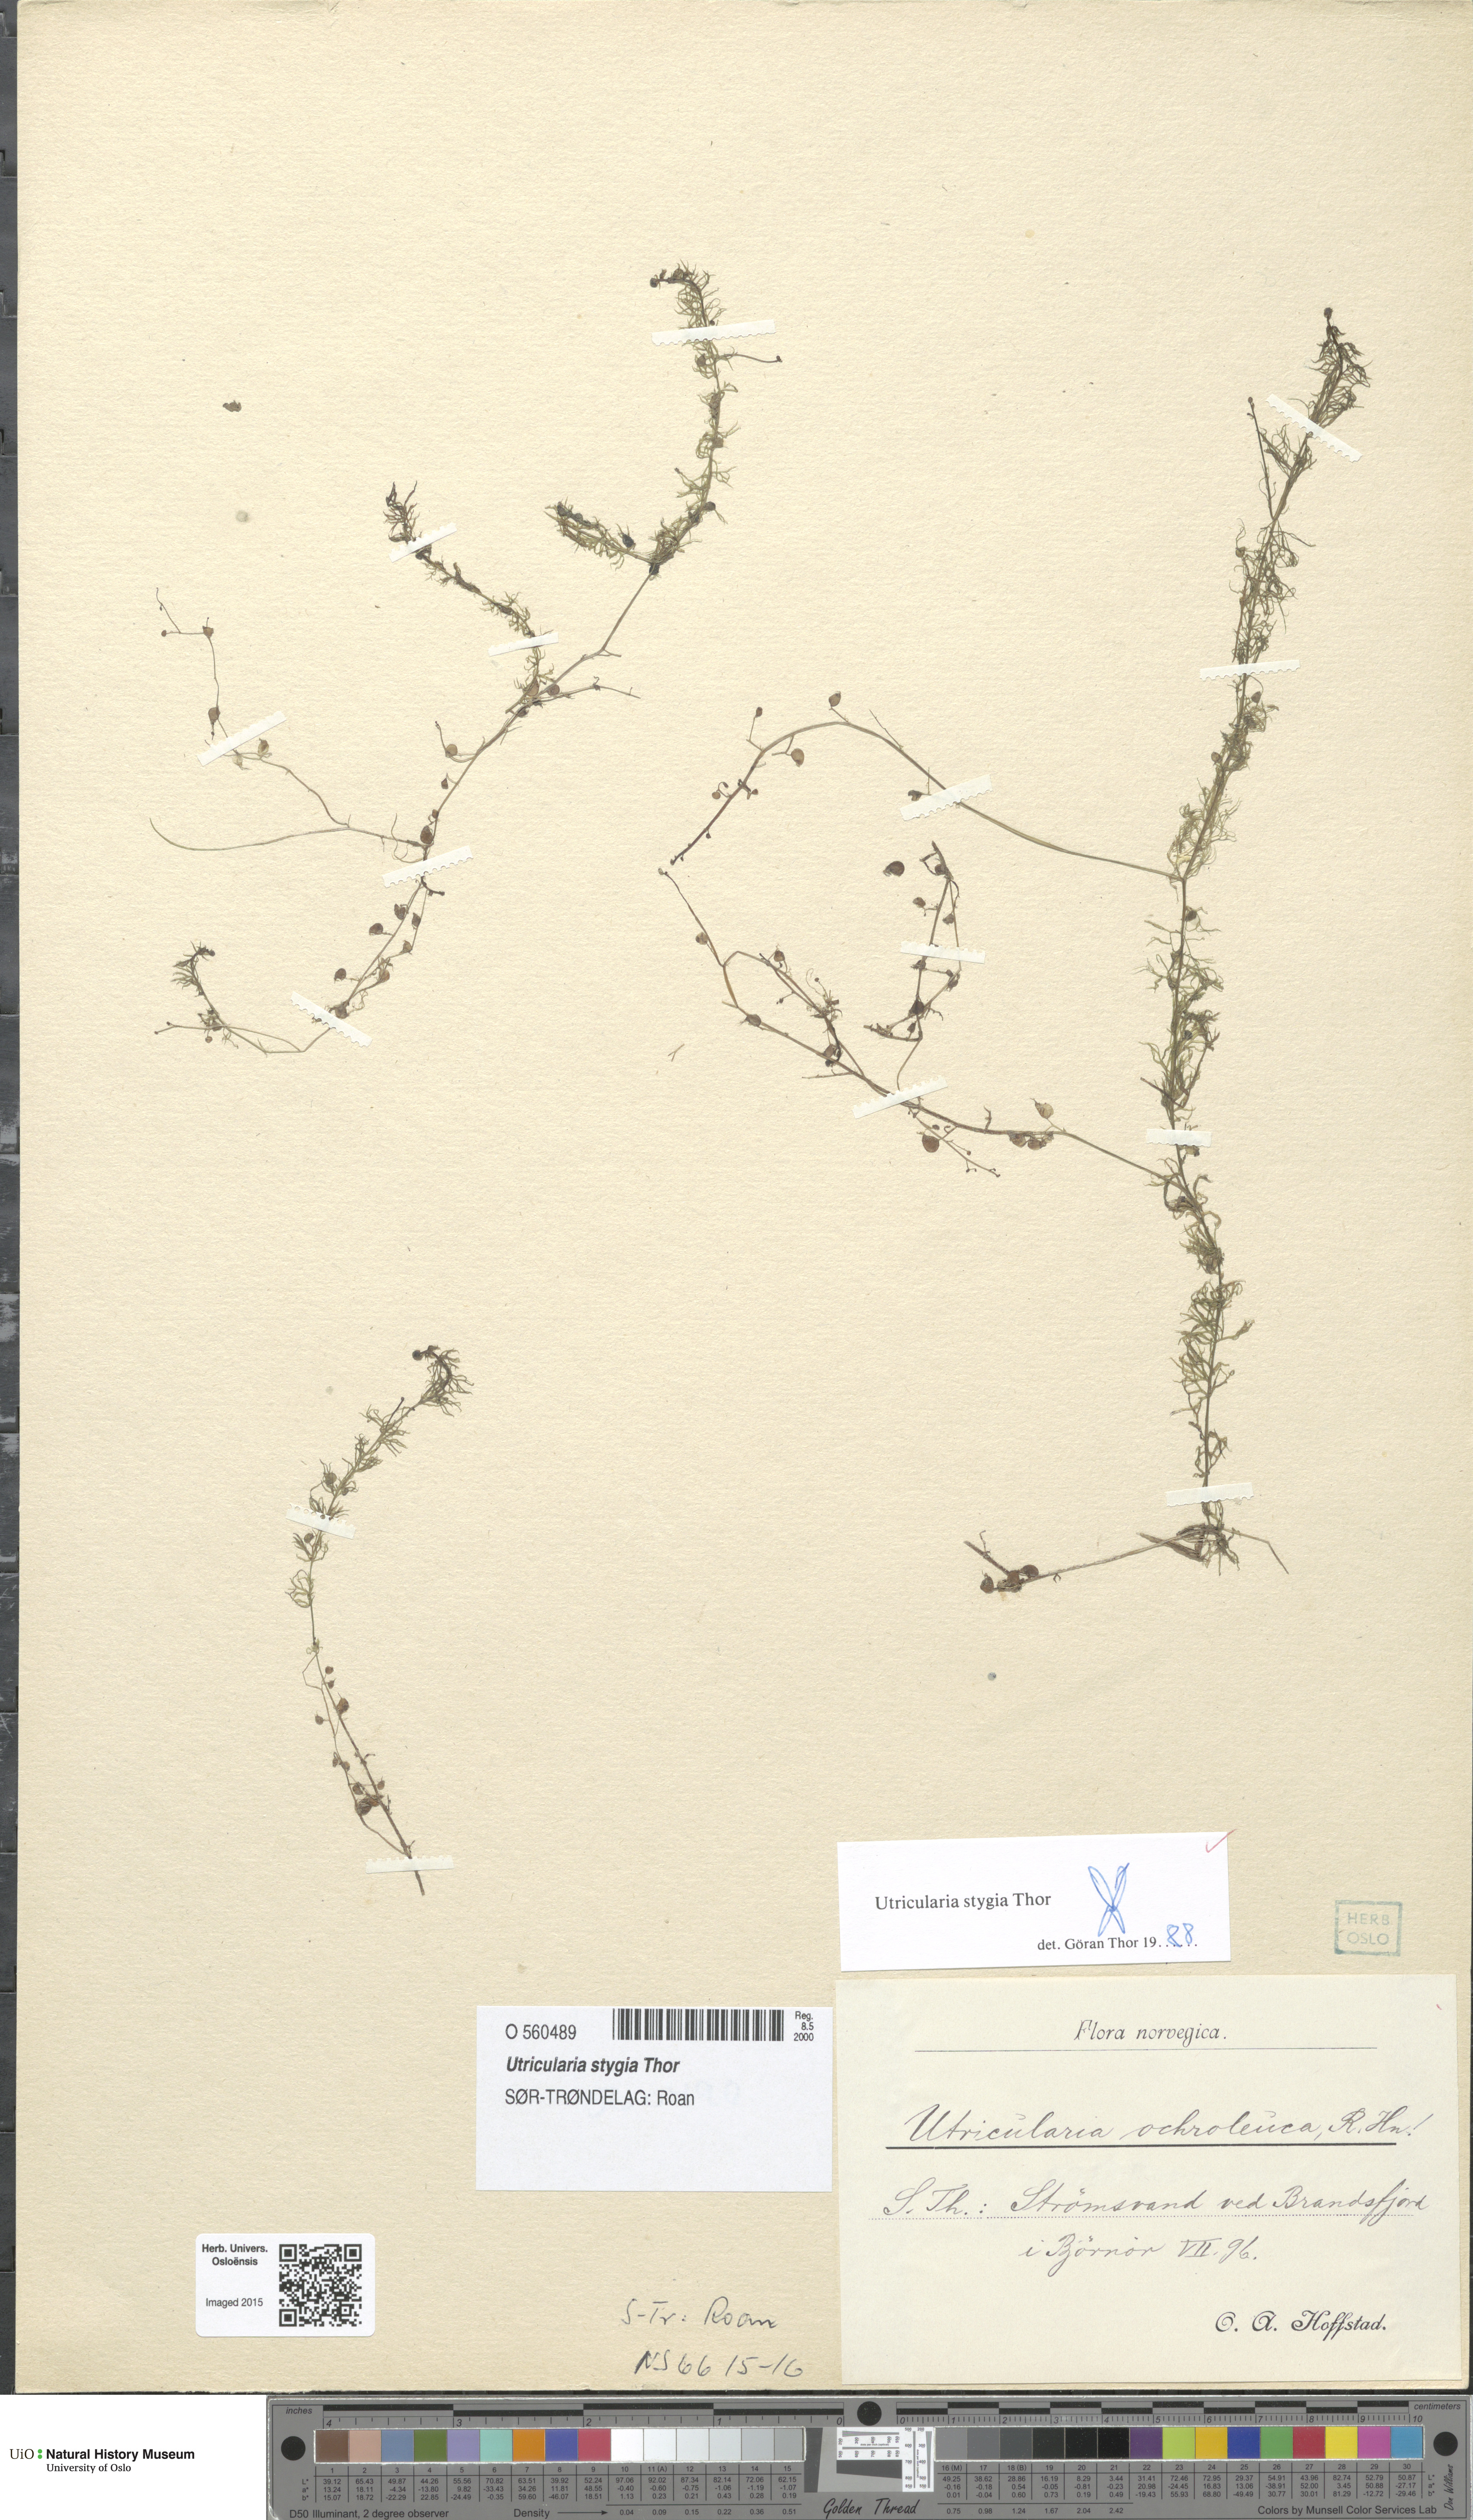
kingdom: Plantae
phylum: Tracheophyta
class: Magnoliopsida
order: Lamiales
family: Lentibulariaceae
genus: Utricularia
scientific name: Utricularia ochroleuca
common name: Pale bladderwort
